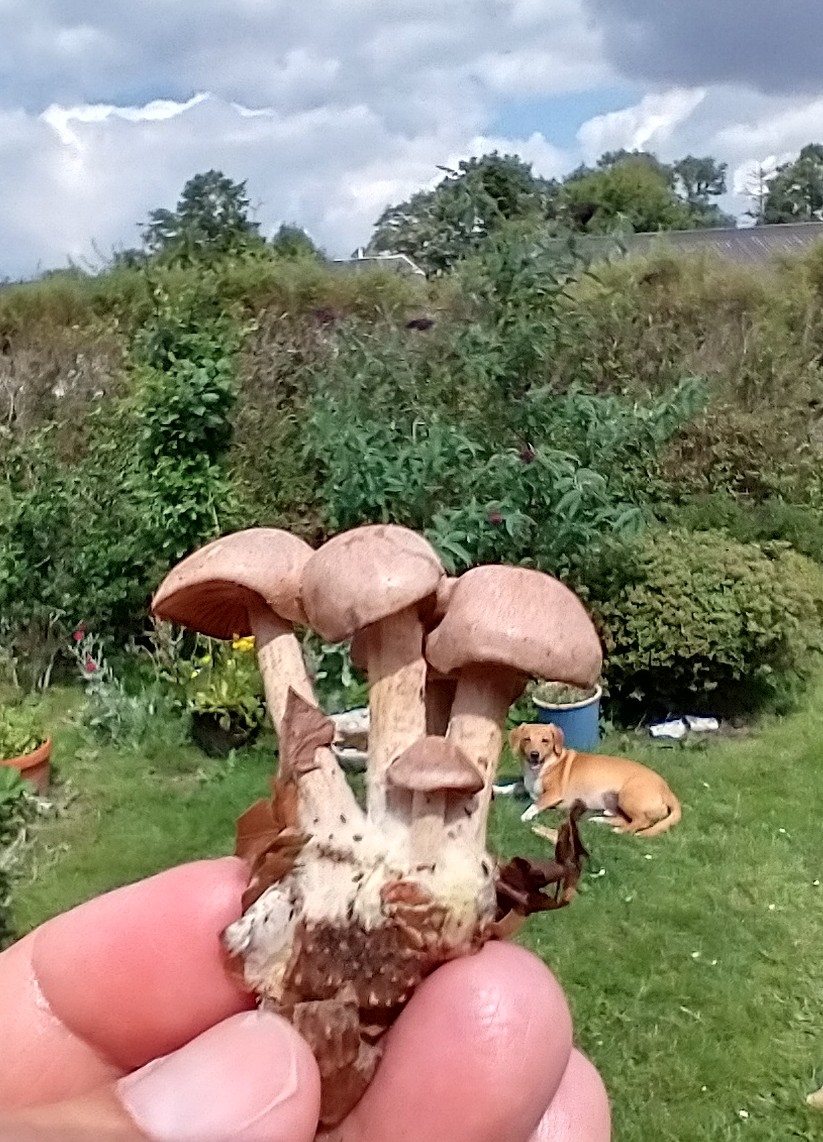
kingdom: Fungi
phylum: Basidiomycota
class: Agaricomycetes
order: Agaricales
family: Omphalotaceae
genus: Collybiopsis
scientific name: Collybiopsis peronata
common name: bestøvlet fladhat
